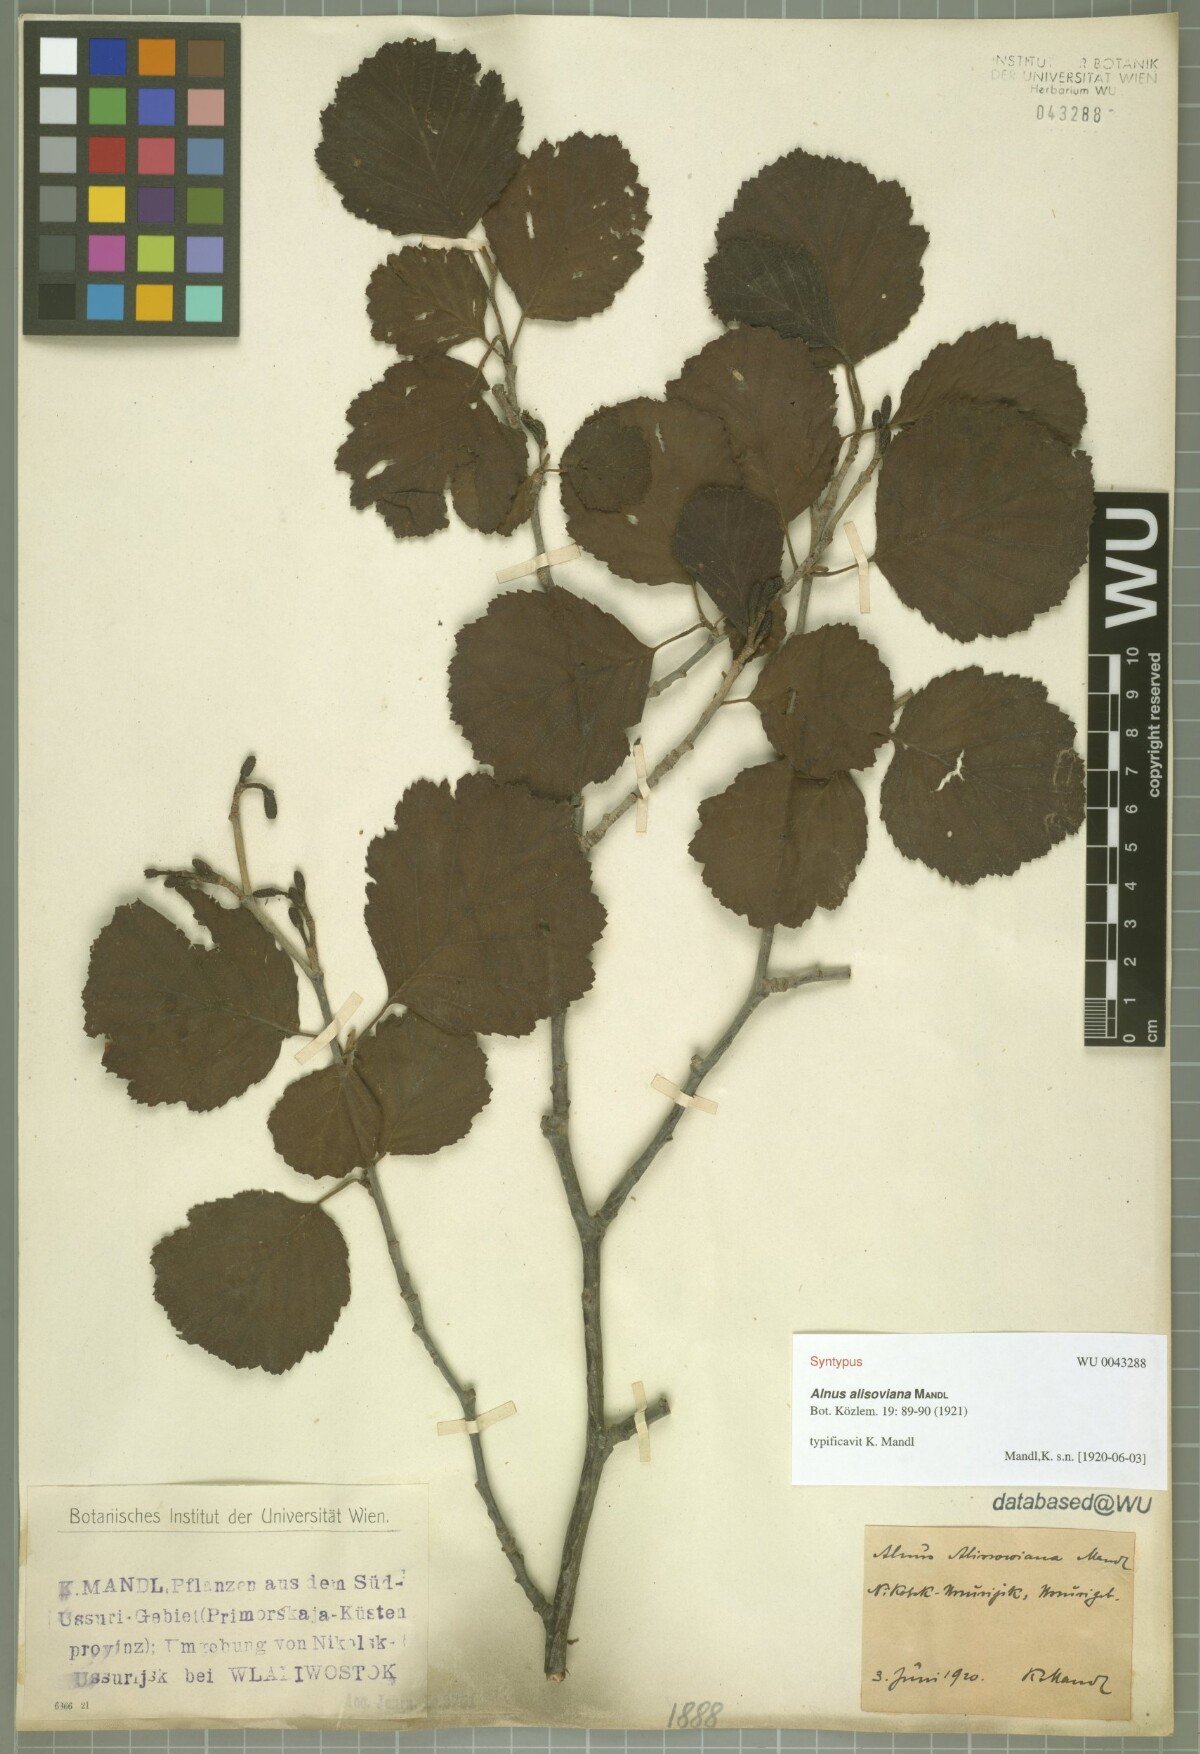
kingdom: Plantae
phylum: Tracheophyta
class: Magnoliopsida
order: Fagales
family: Betulaceae
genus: Alnus
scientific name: Alnus incana
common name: Grey alder
